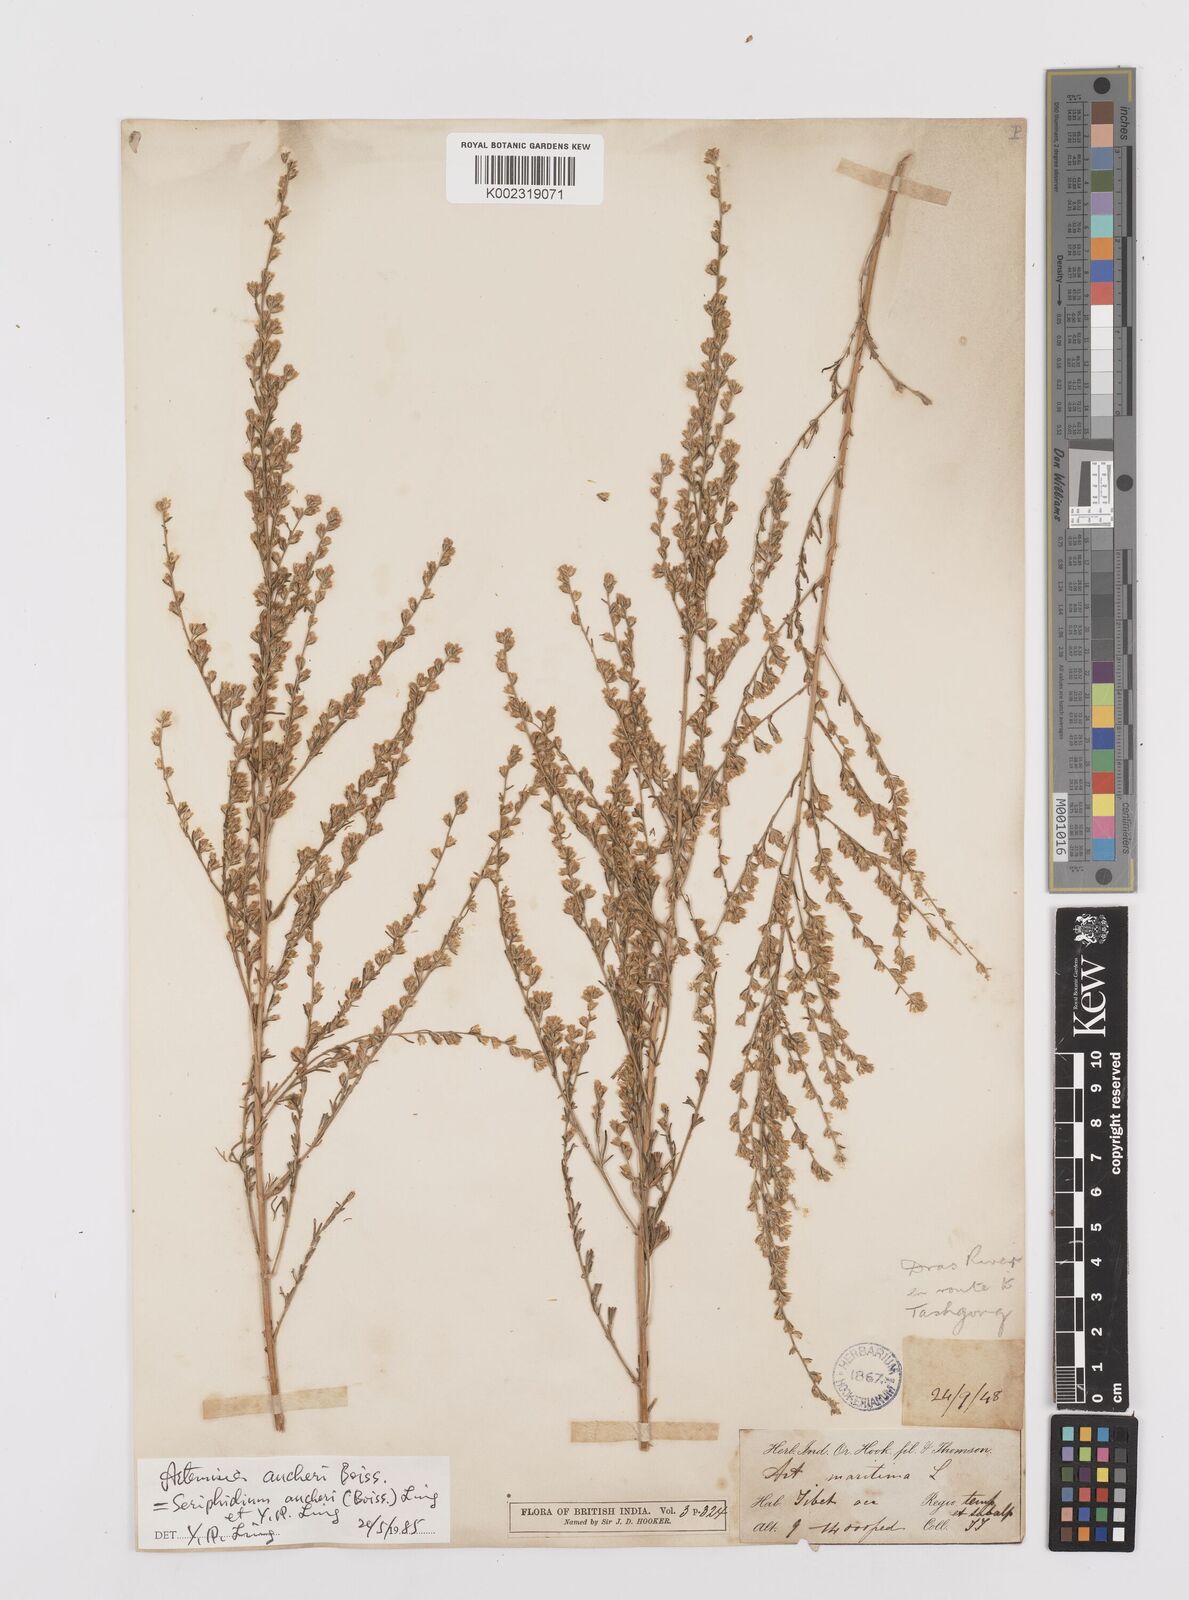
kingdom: Plantae
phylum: Tracheophyta
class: Magnoliopsida
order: Asterales
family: Asteraceae
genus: Artemisia
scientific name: Artemisia aucheri
